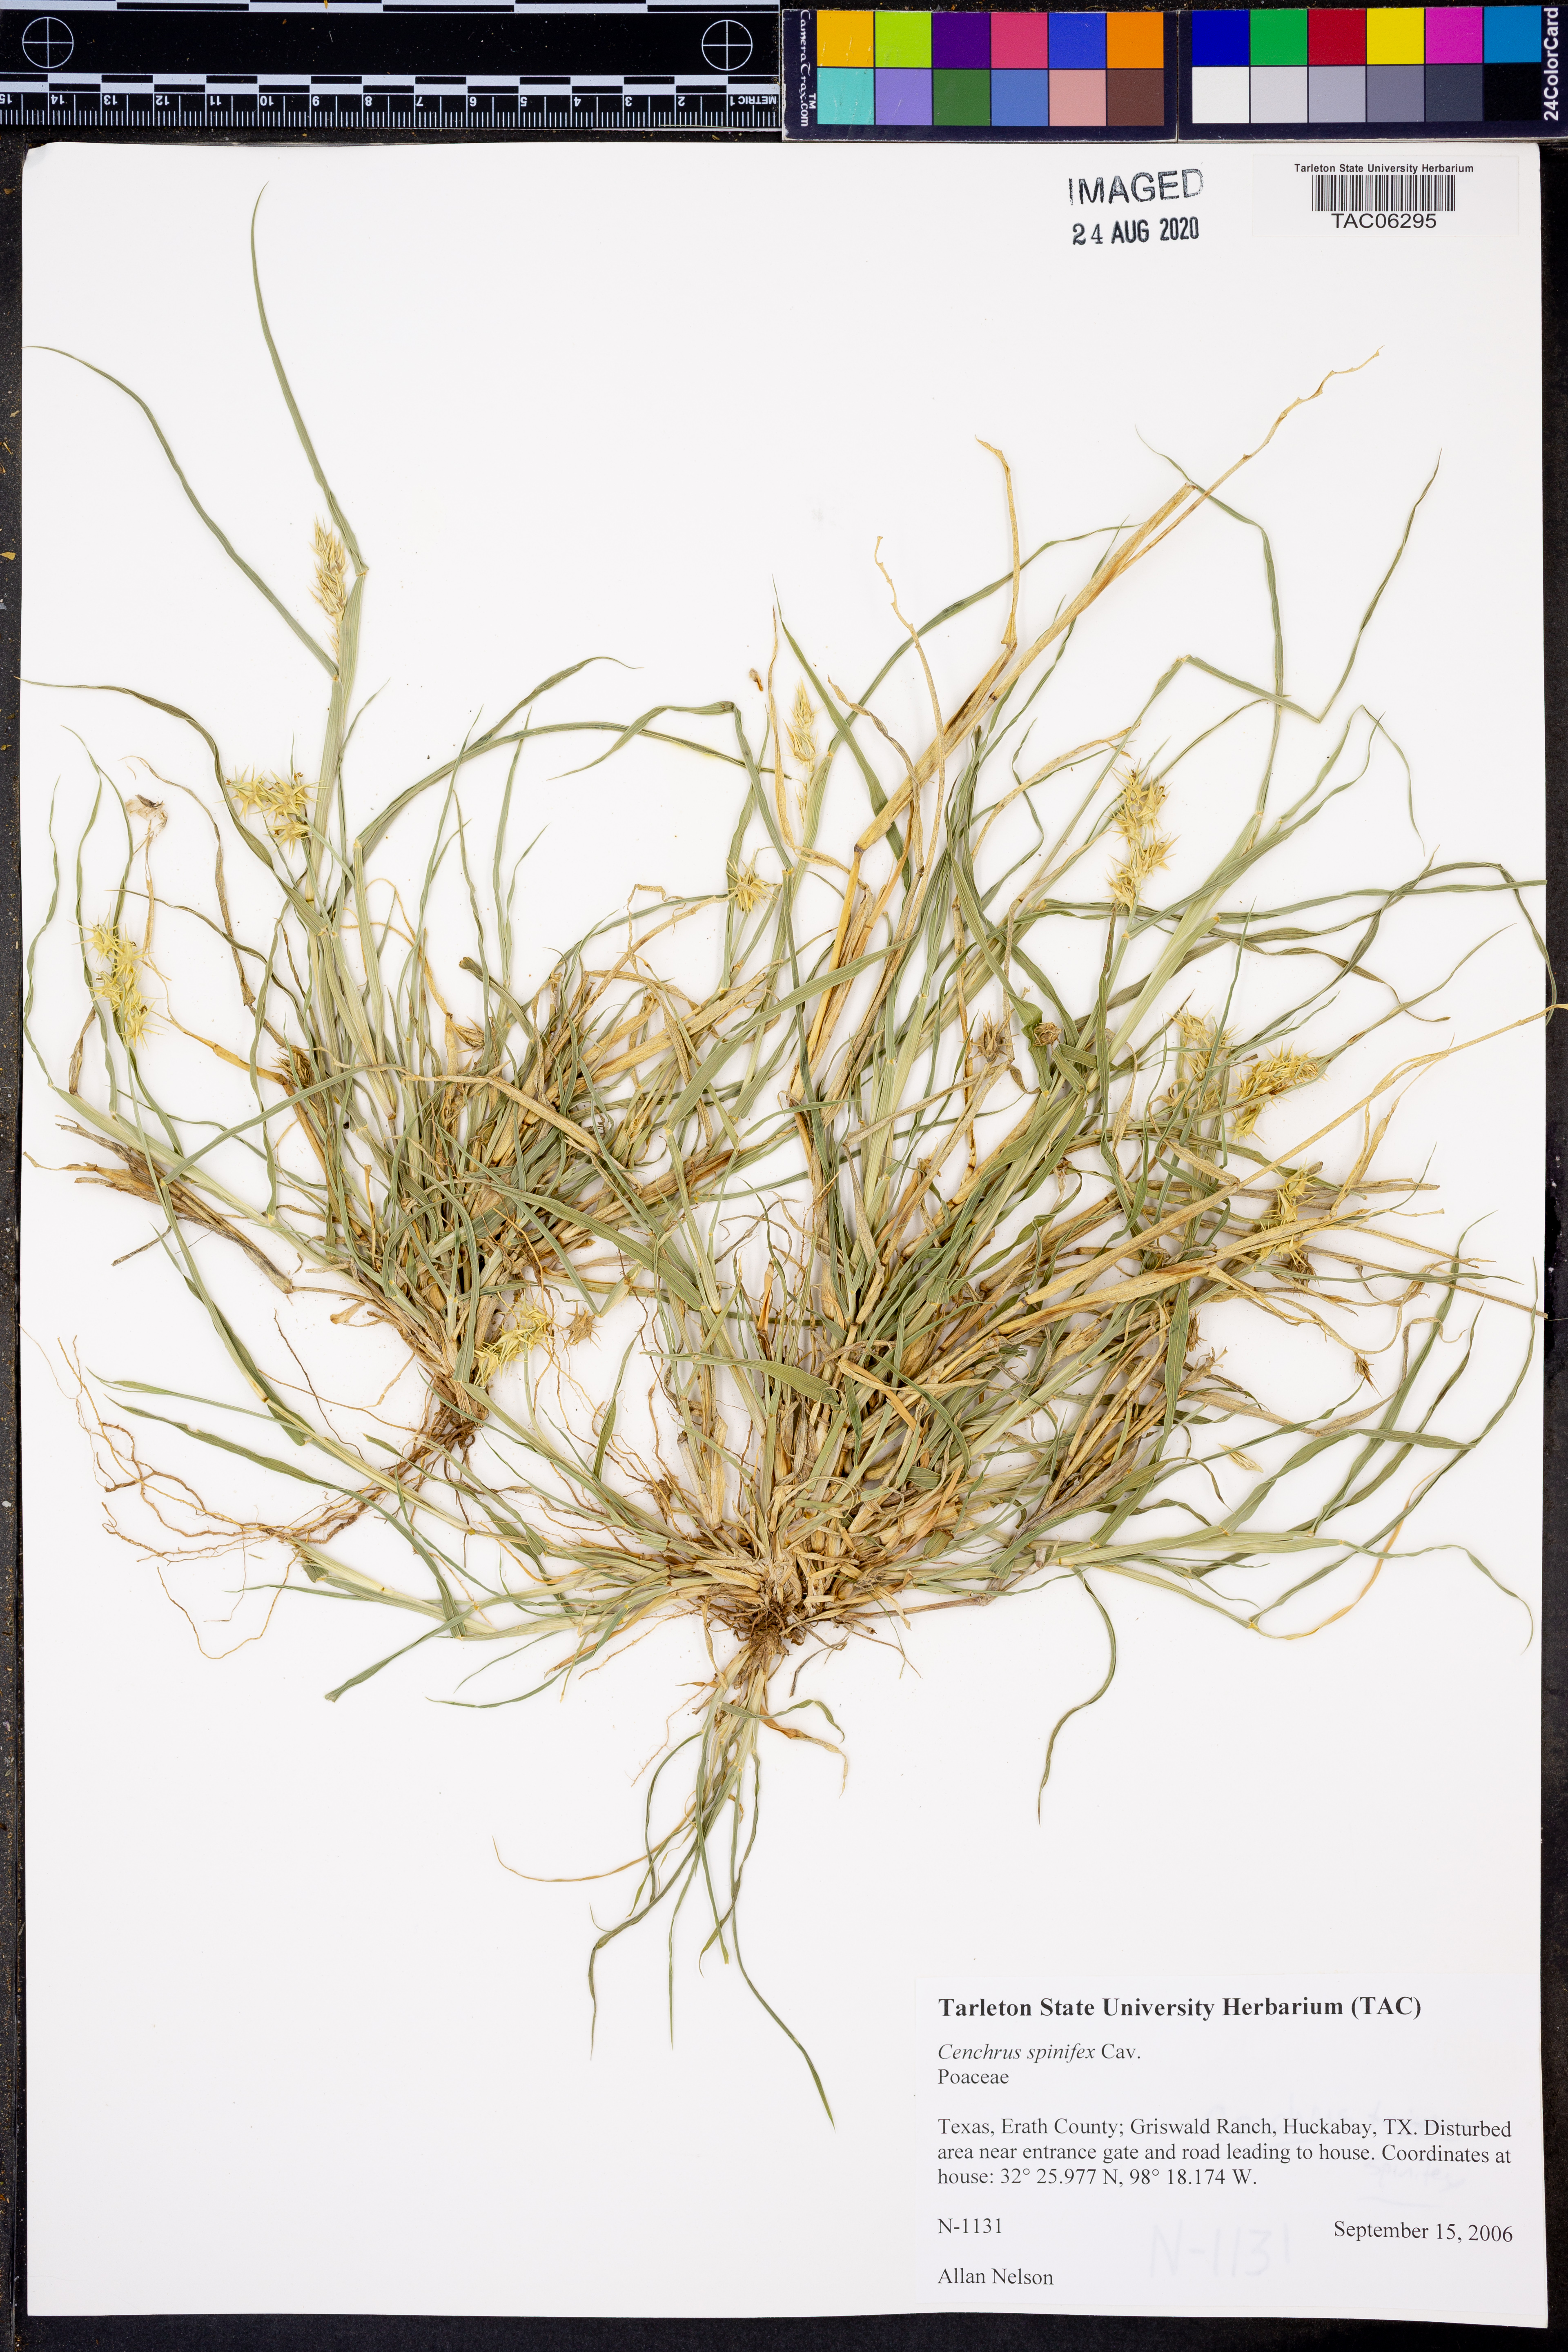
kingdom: Plantae
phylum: Tracheophyta
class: Liliopsida
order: Poales
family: Poaceae
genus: Cenchrus
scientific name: Cenchrus spinifex
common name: Coast sandbur
